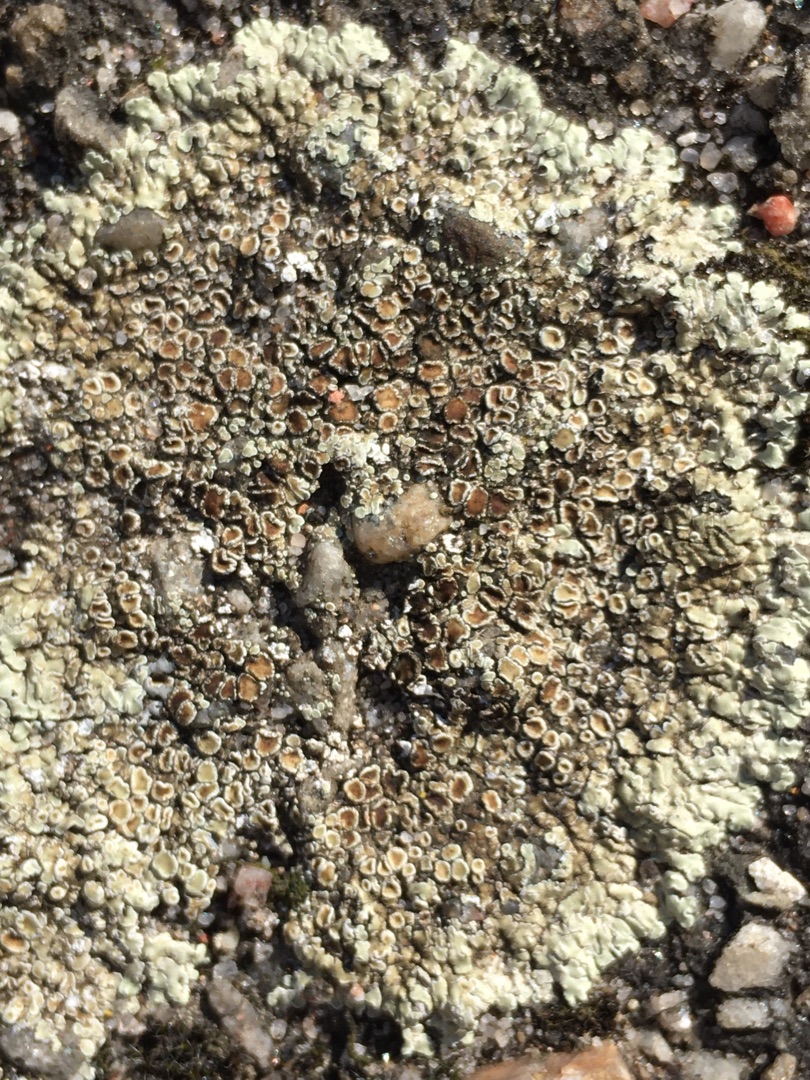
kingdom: Fungi
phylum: Ascomycota
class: Lecanoromycetes
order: Lecanorales
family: Lecanoraceae
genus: Protoparmeliopsis
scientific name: Protoparmeliopsis muralis
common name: Randfliget kantskivelav
